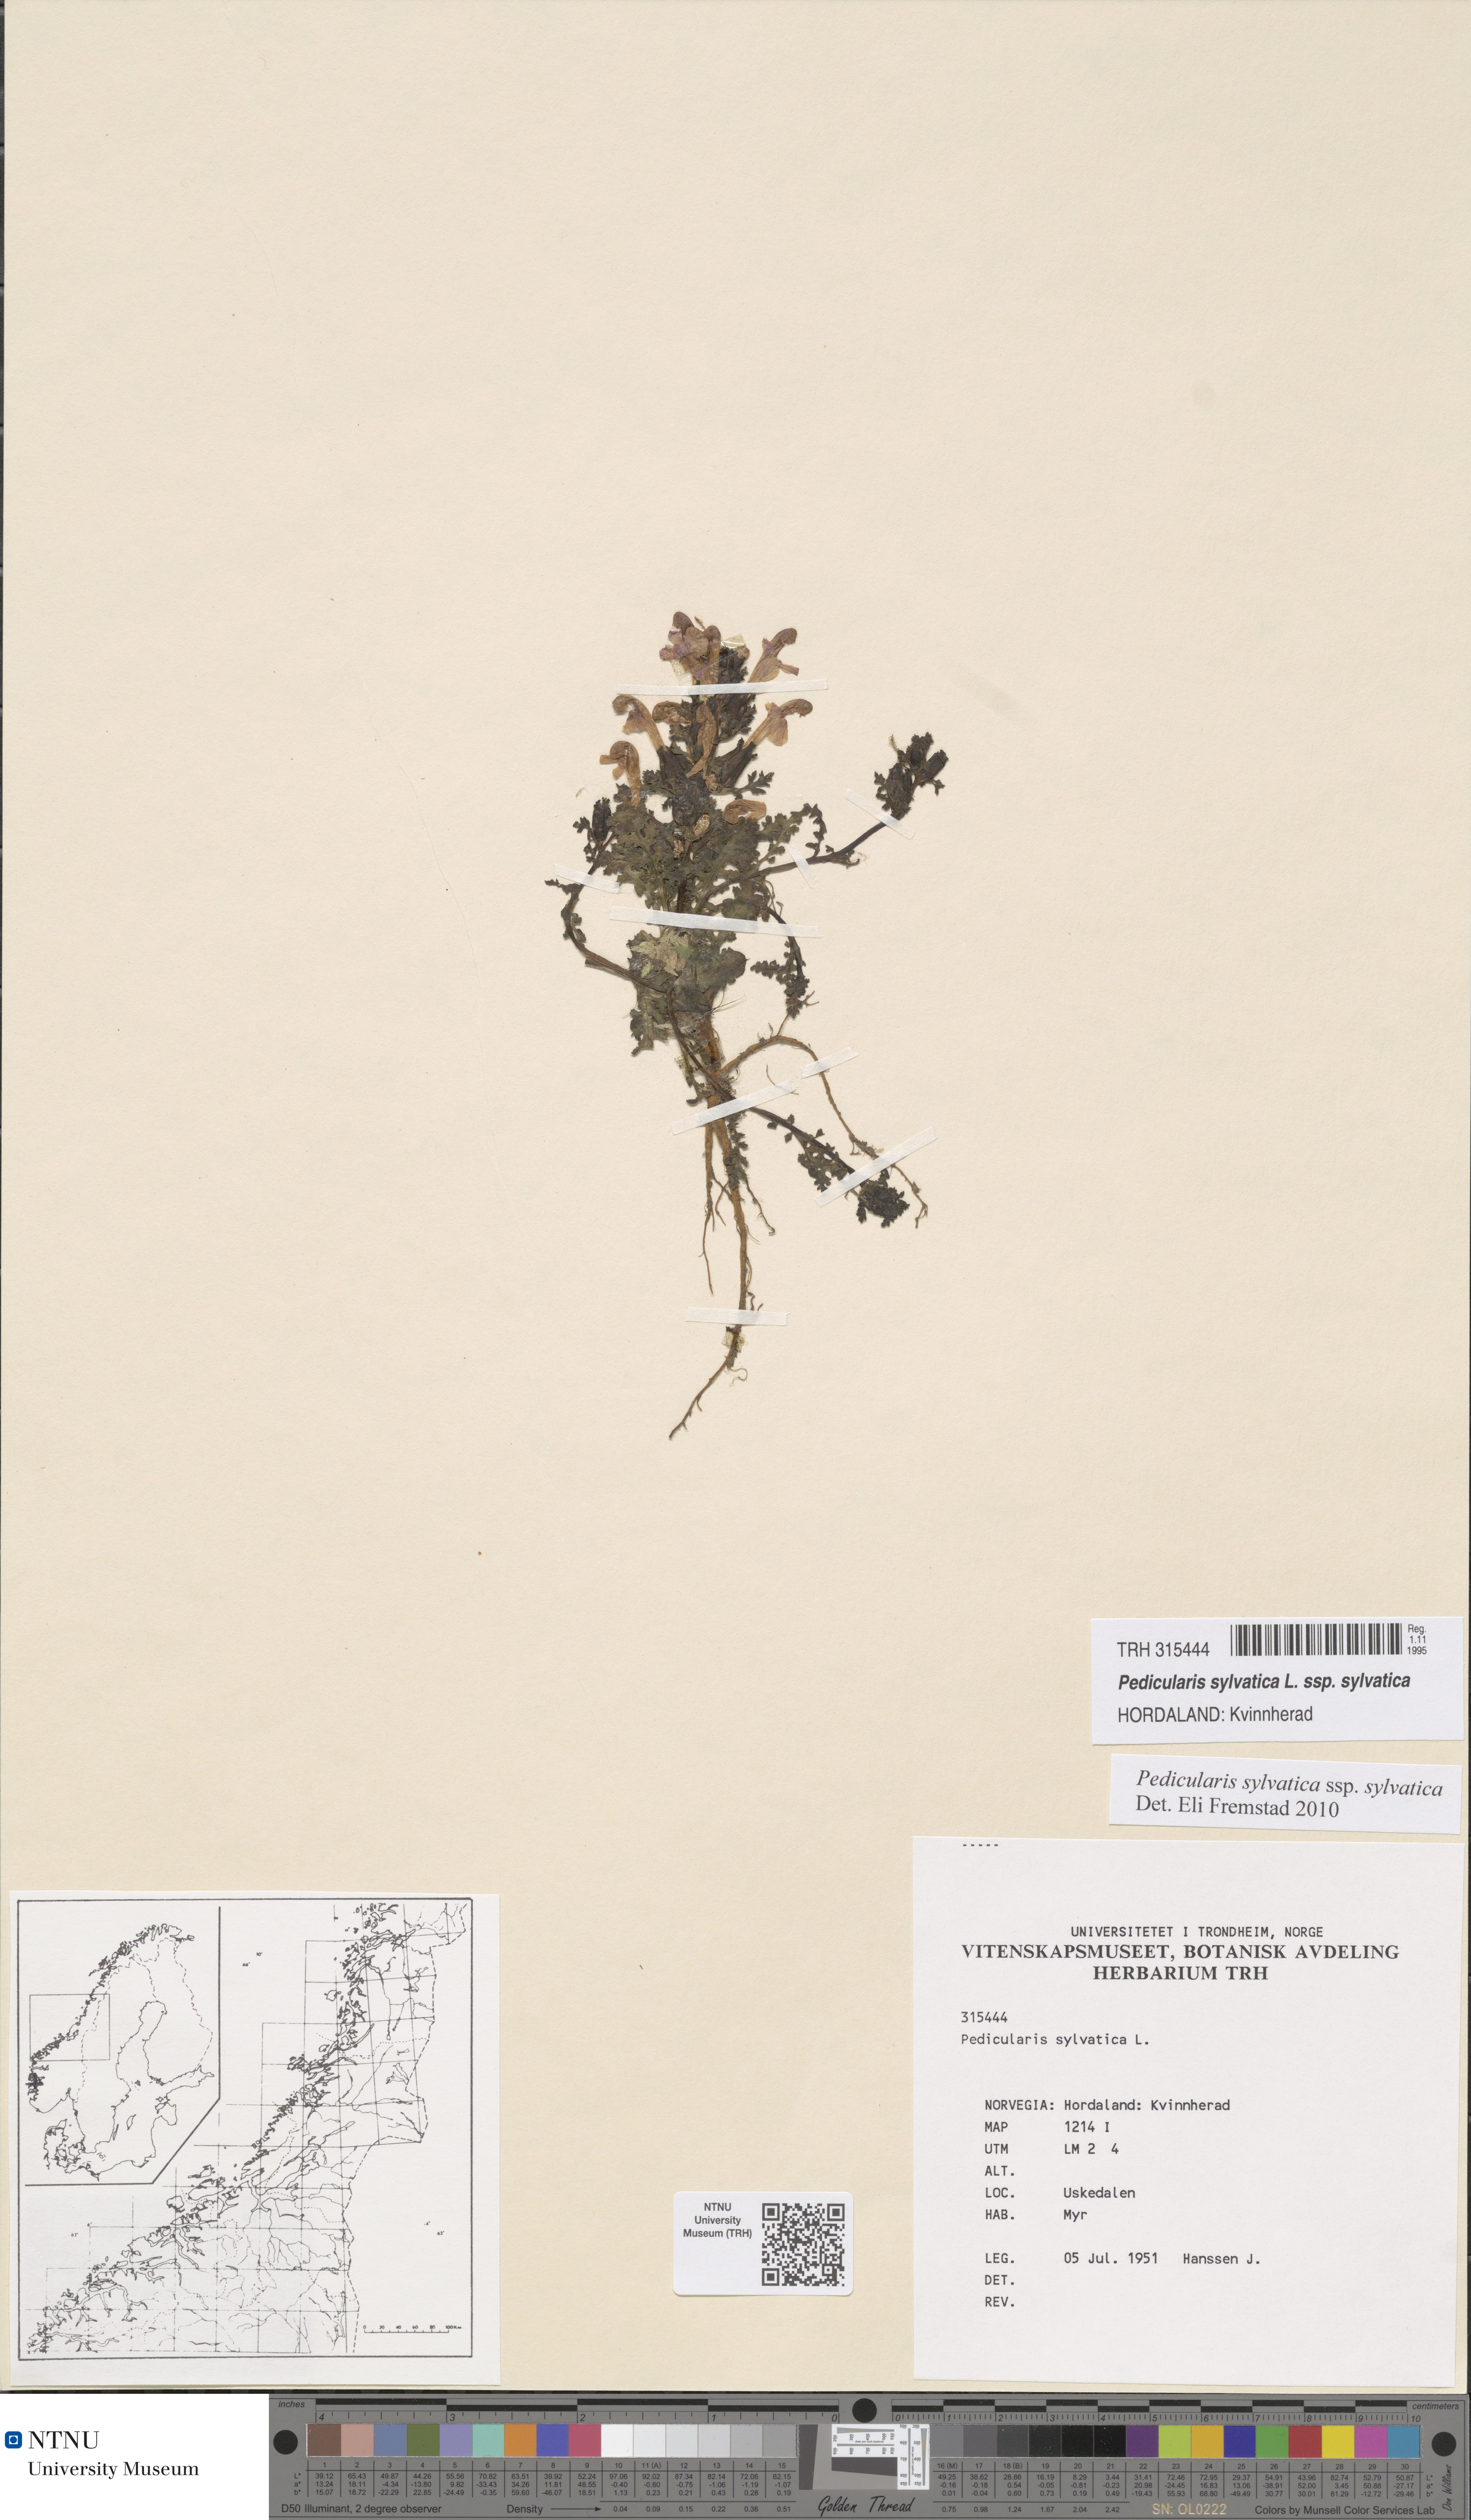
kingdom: Plantae
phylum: Tracheophyta
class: Magnoliopsida
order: Lamiales
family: Orobanchaceae
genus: Pedicularis
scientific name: Pedicularis sylvatica
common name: Lousewort
